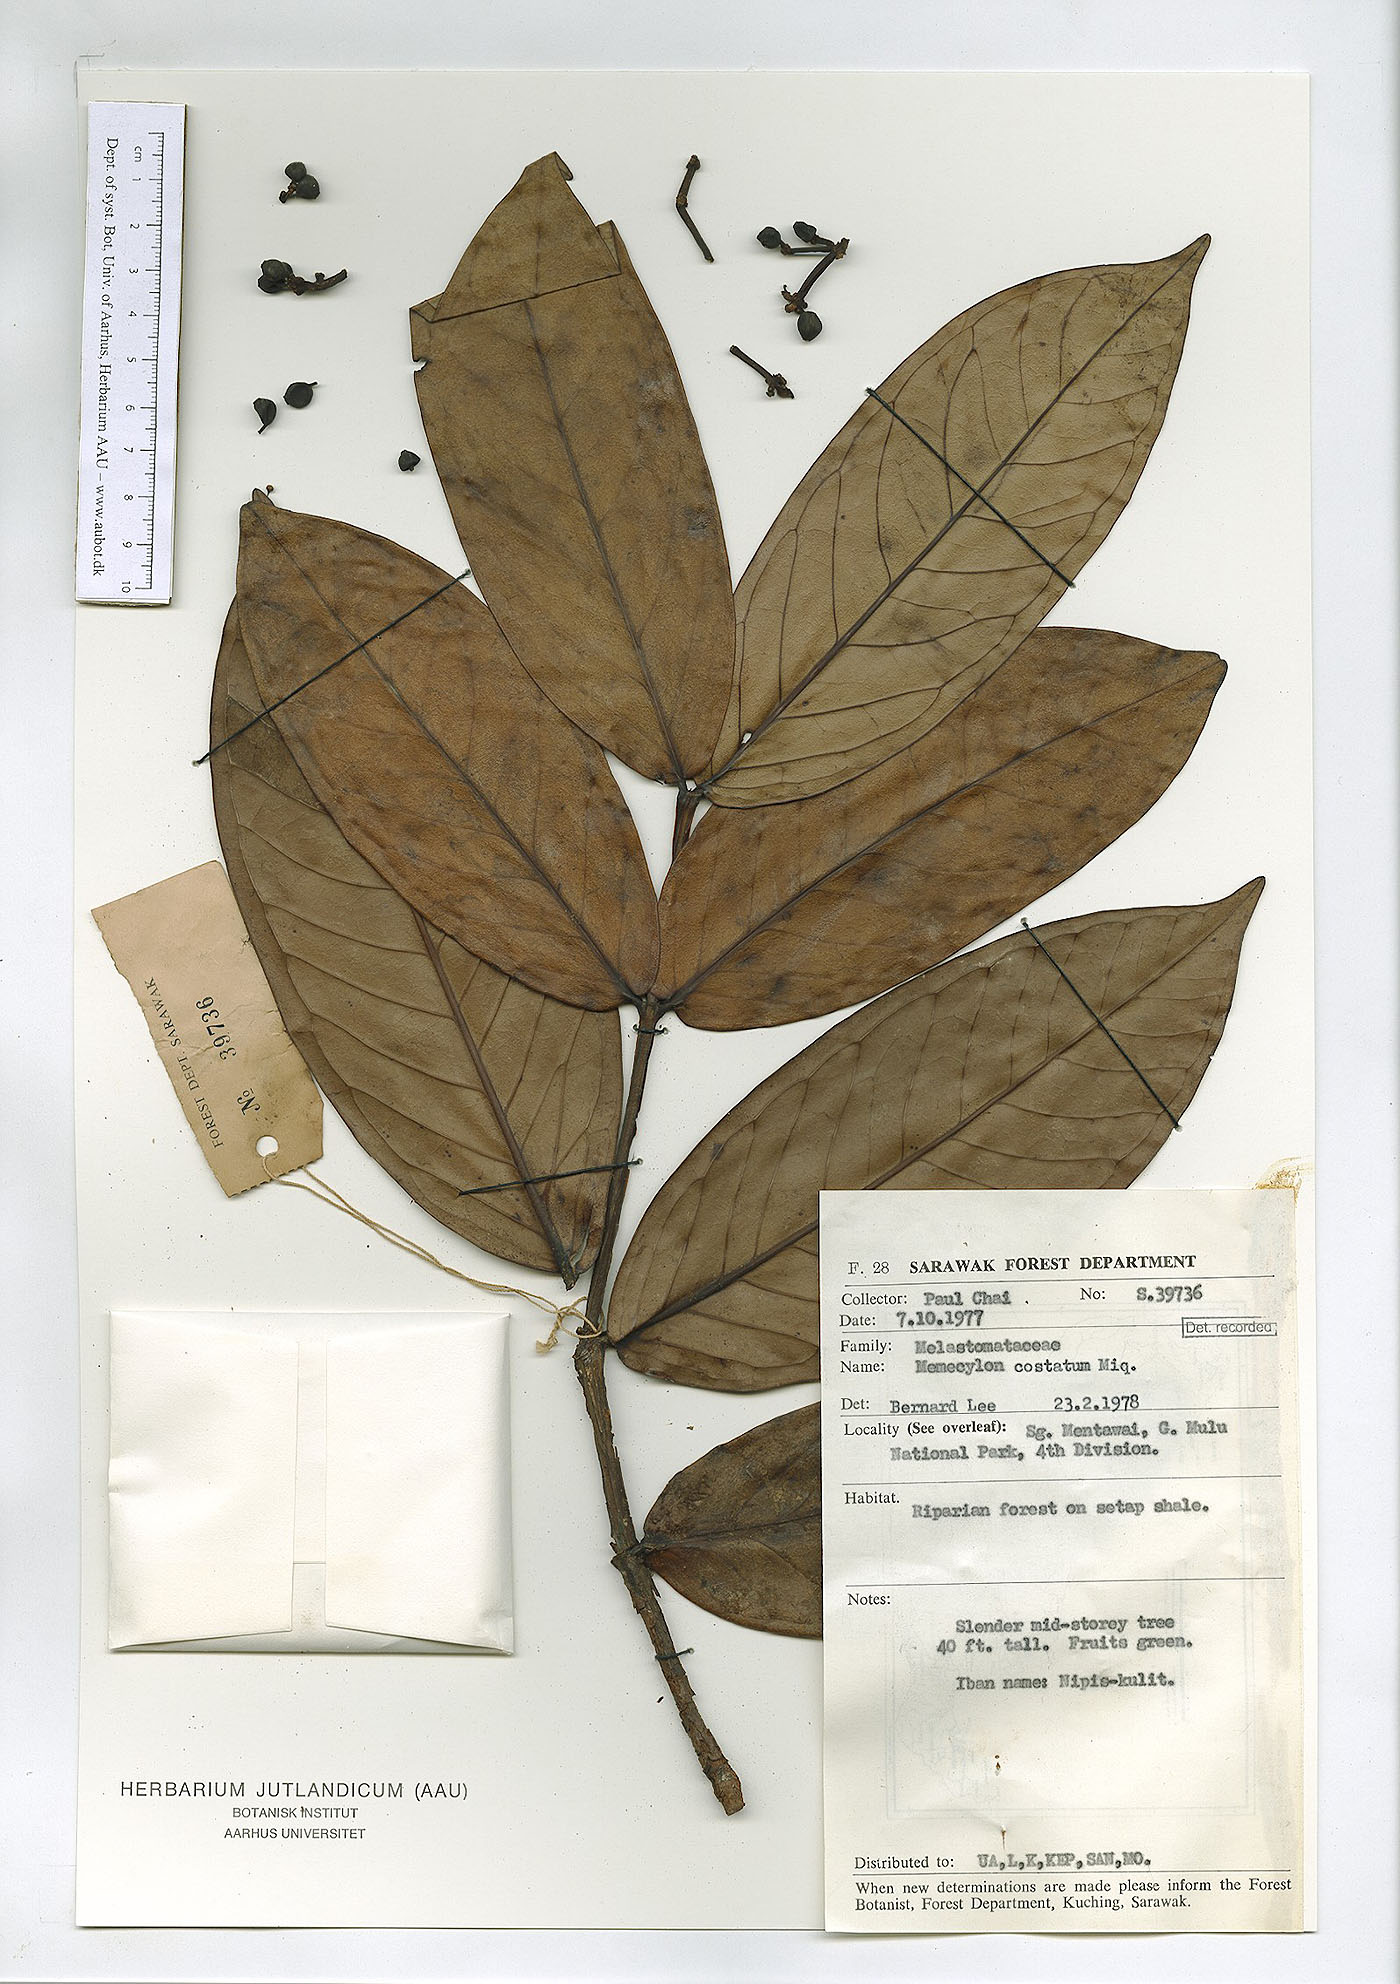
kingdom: Plantae
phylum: Tracheophyta
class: Magnoliopsida
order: Myrtales
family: Melastomataceae
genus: Memecylon
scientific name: Memecylon paniculatum
